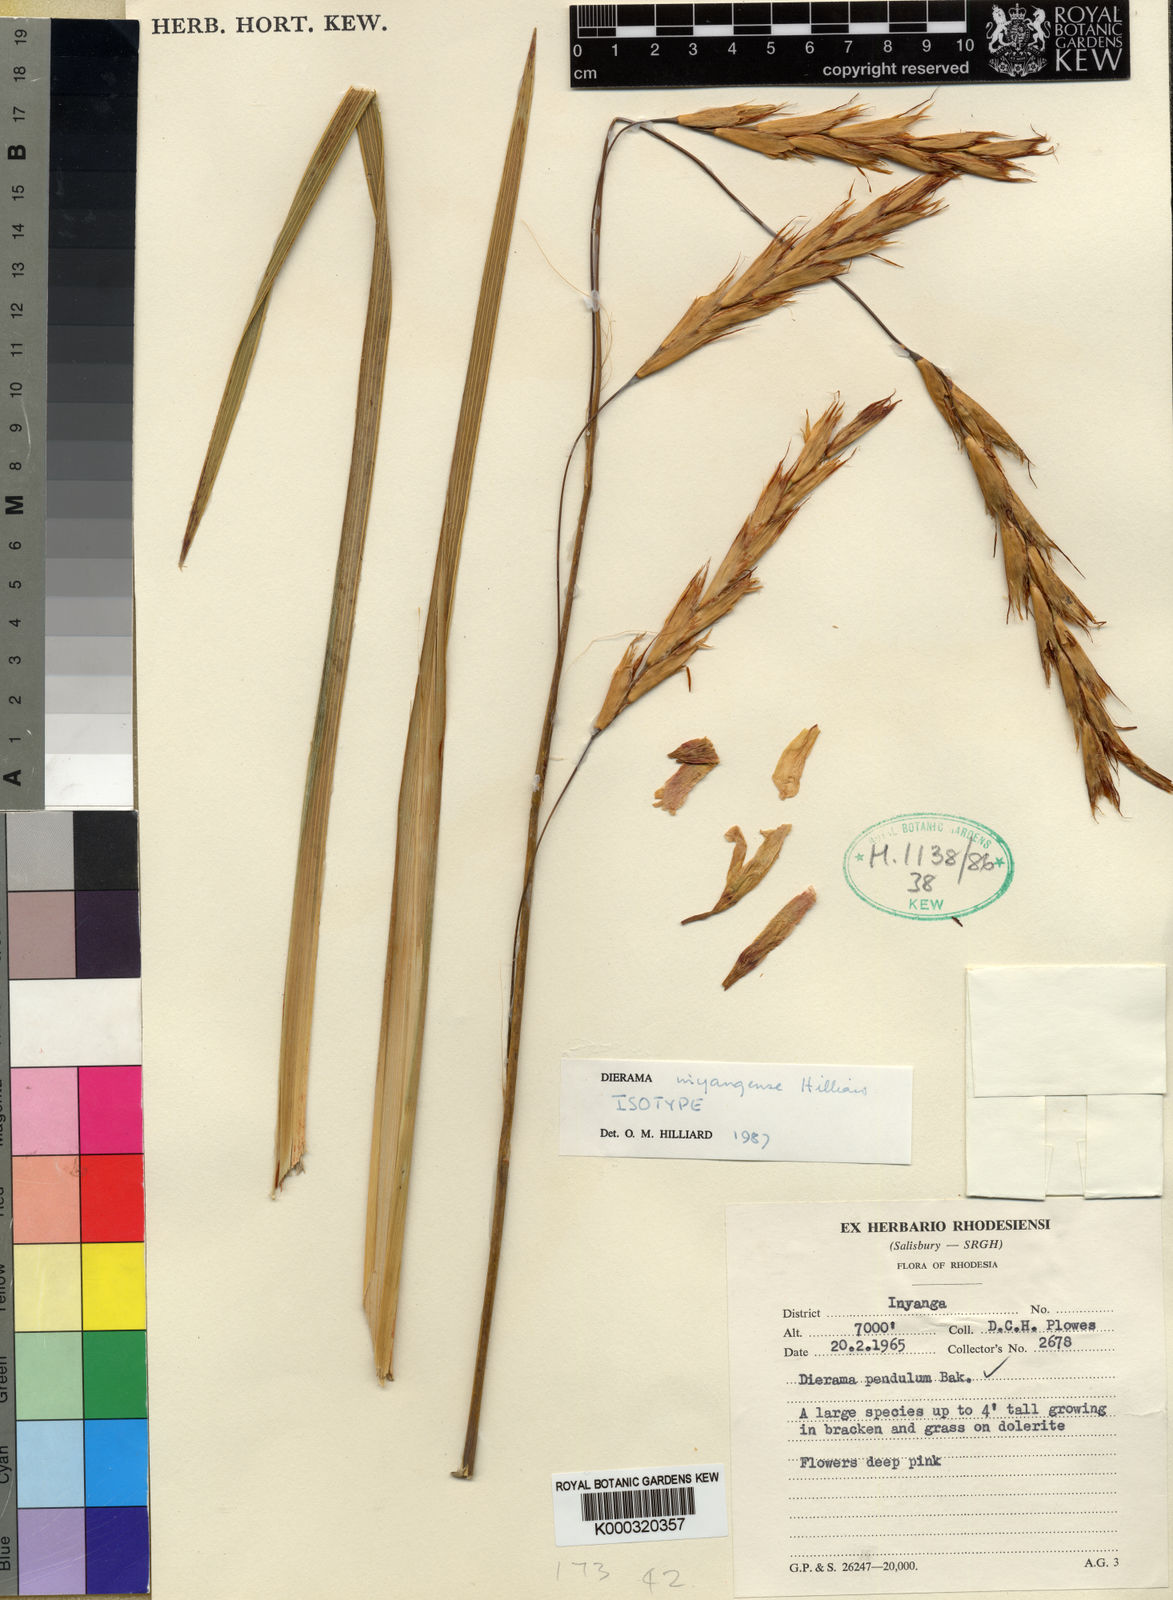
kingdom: Plantae
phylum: Tracheophyta
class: Liliopsida
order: Asparagales
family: Iridaceae
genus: Dierama
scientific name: Dierama inyangense
